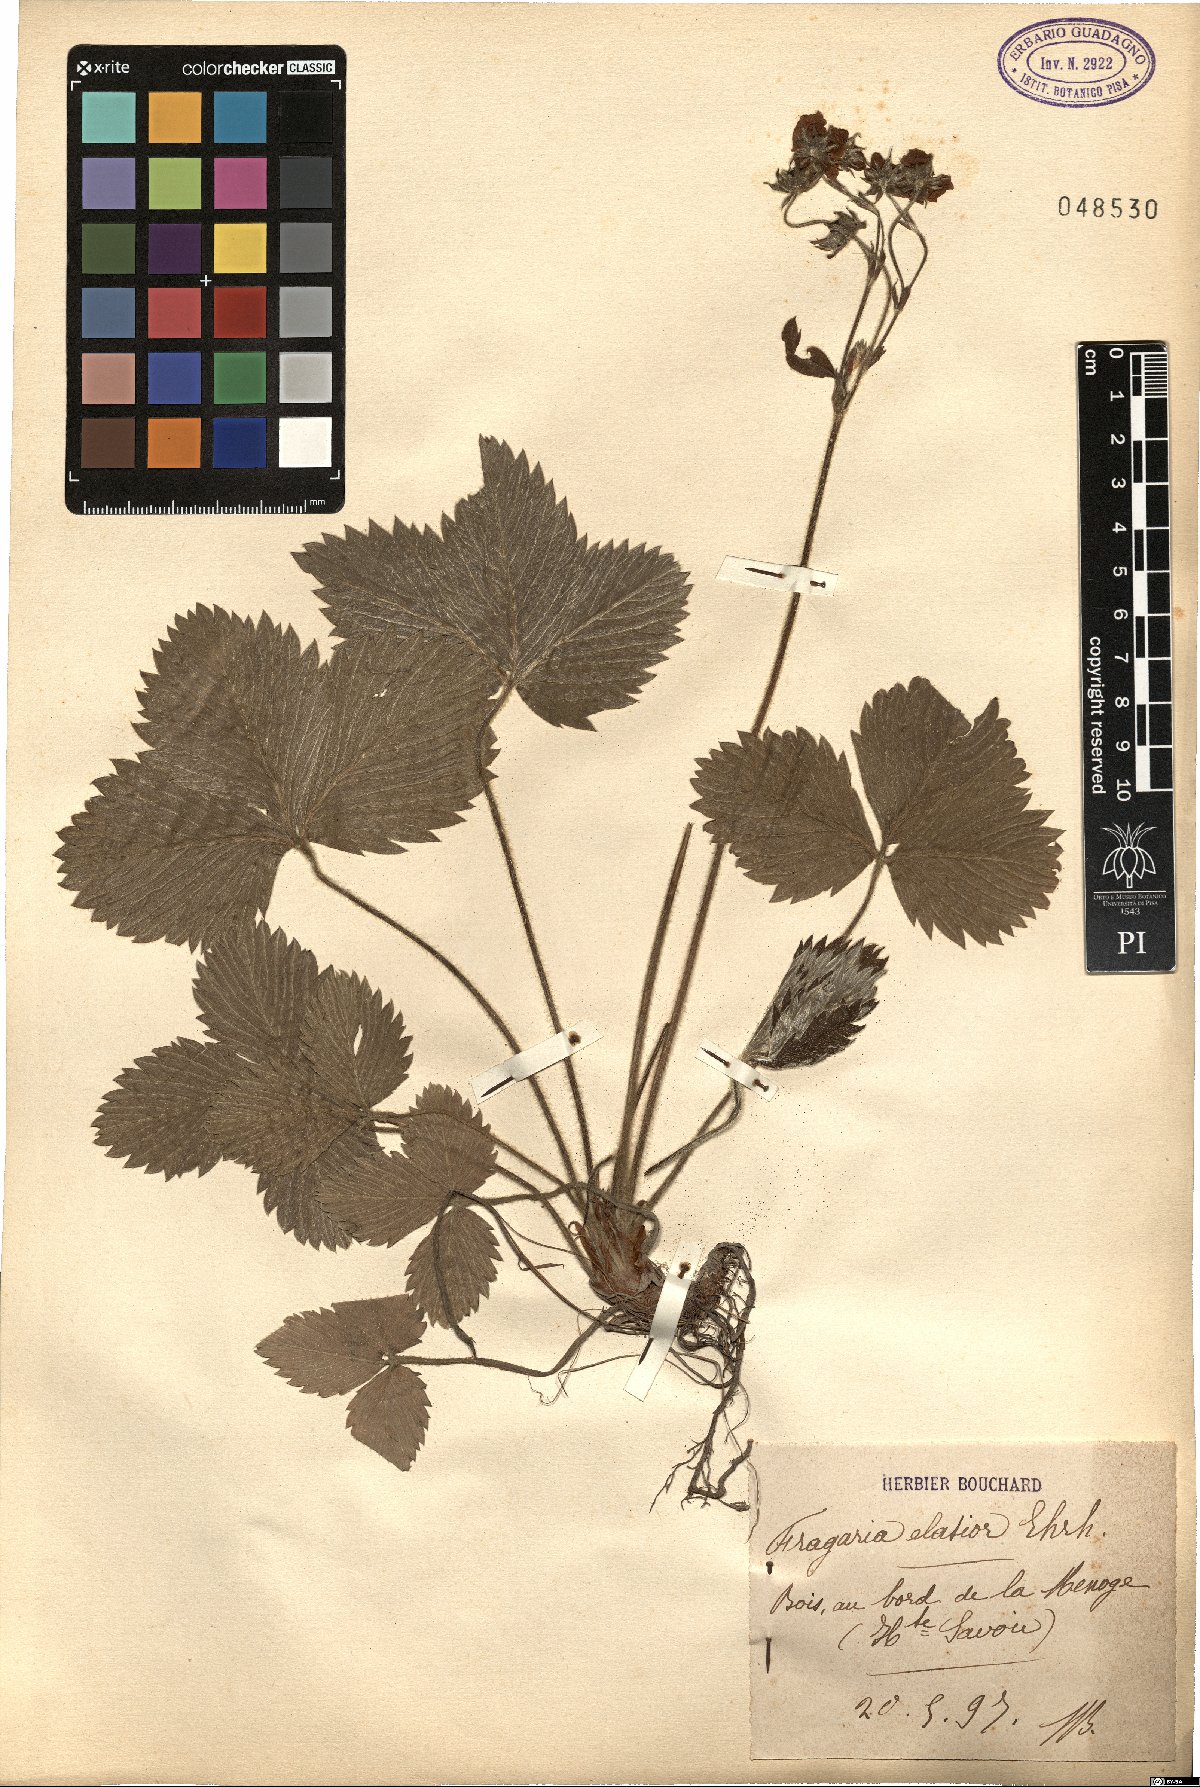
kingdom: Plantae
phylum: Tracheophyta
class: Magnoliopsida
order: Rosales
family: Rosaceae
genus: Fragaria
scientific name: Fragaria
